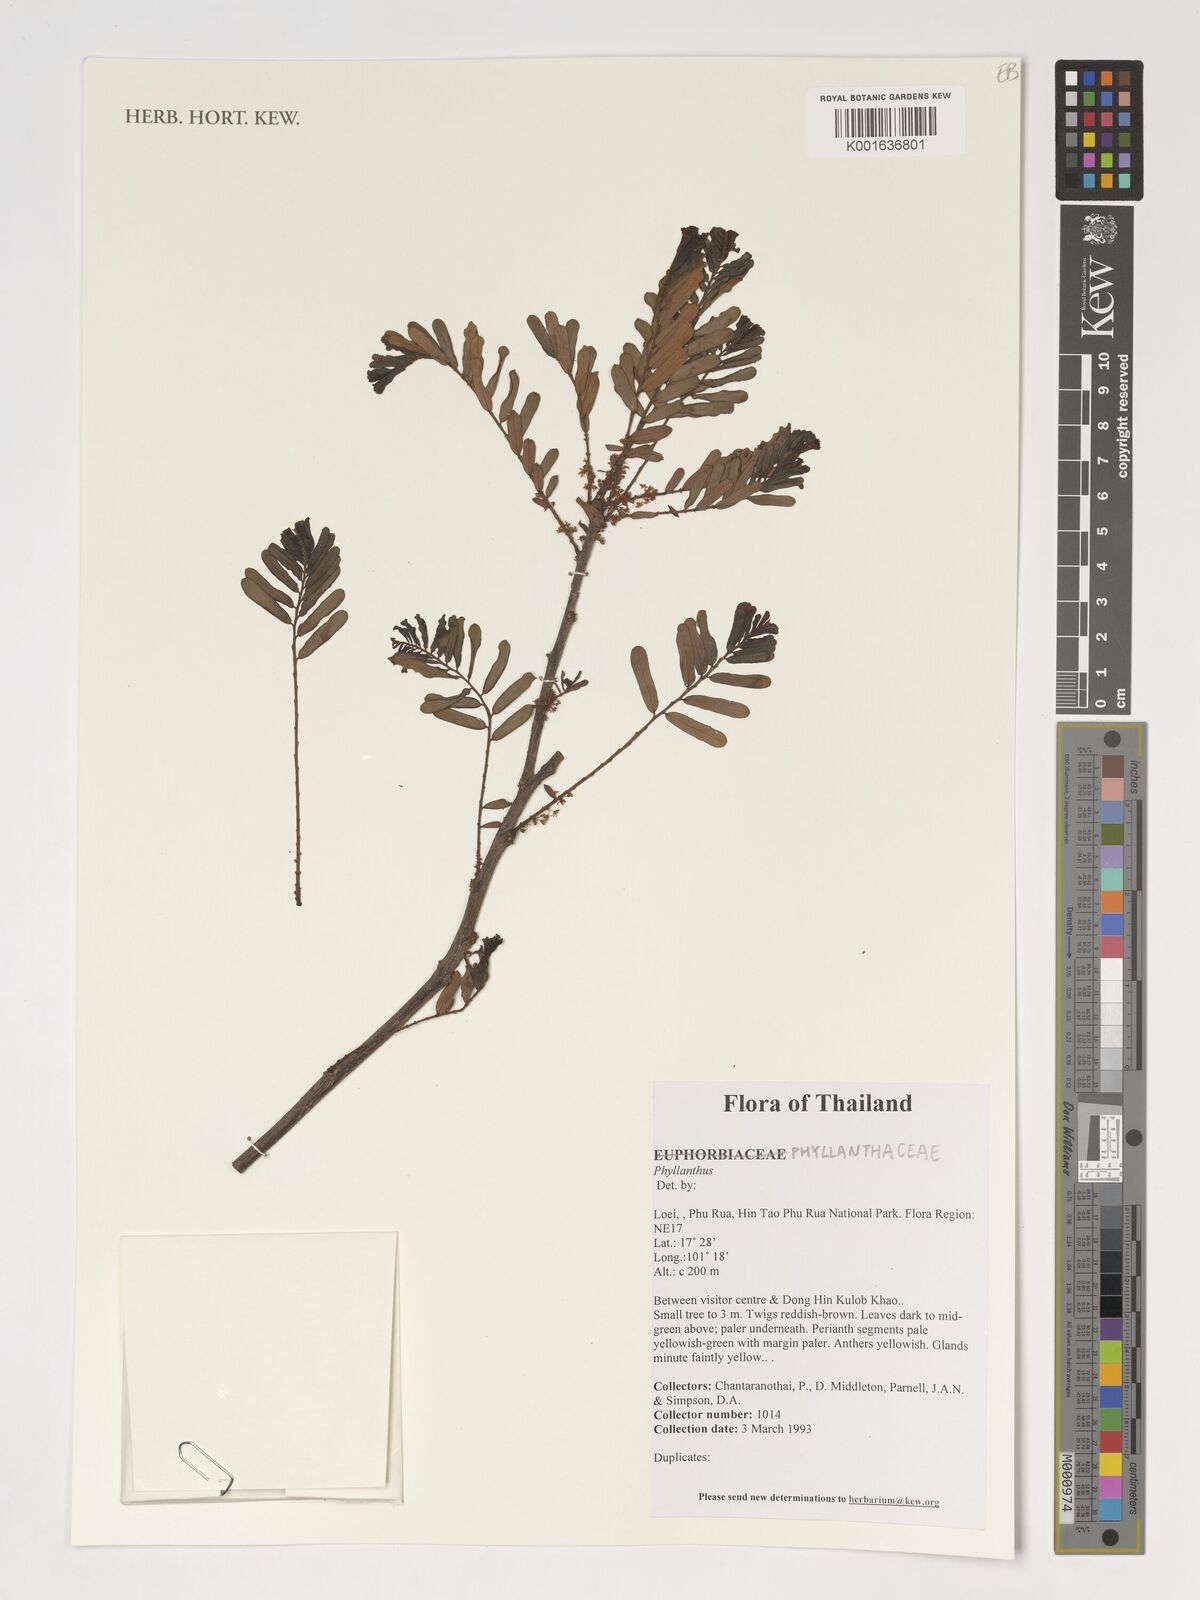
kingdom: Plantae
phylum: Tracheophyta
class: Magnoliopsida
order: Malpighiales
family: Phyllanthaceae
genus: Phyllanthus
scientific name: Phyllanthus
